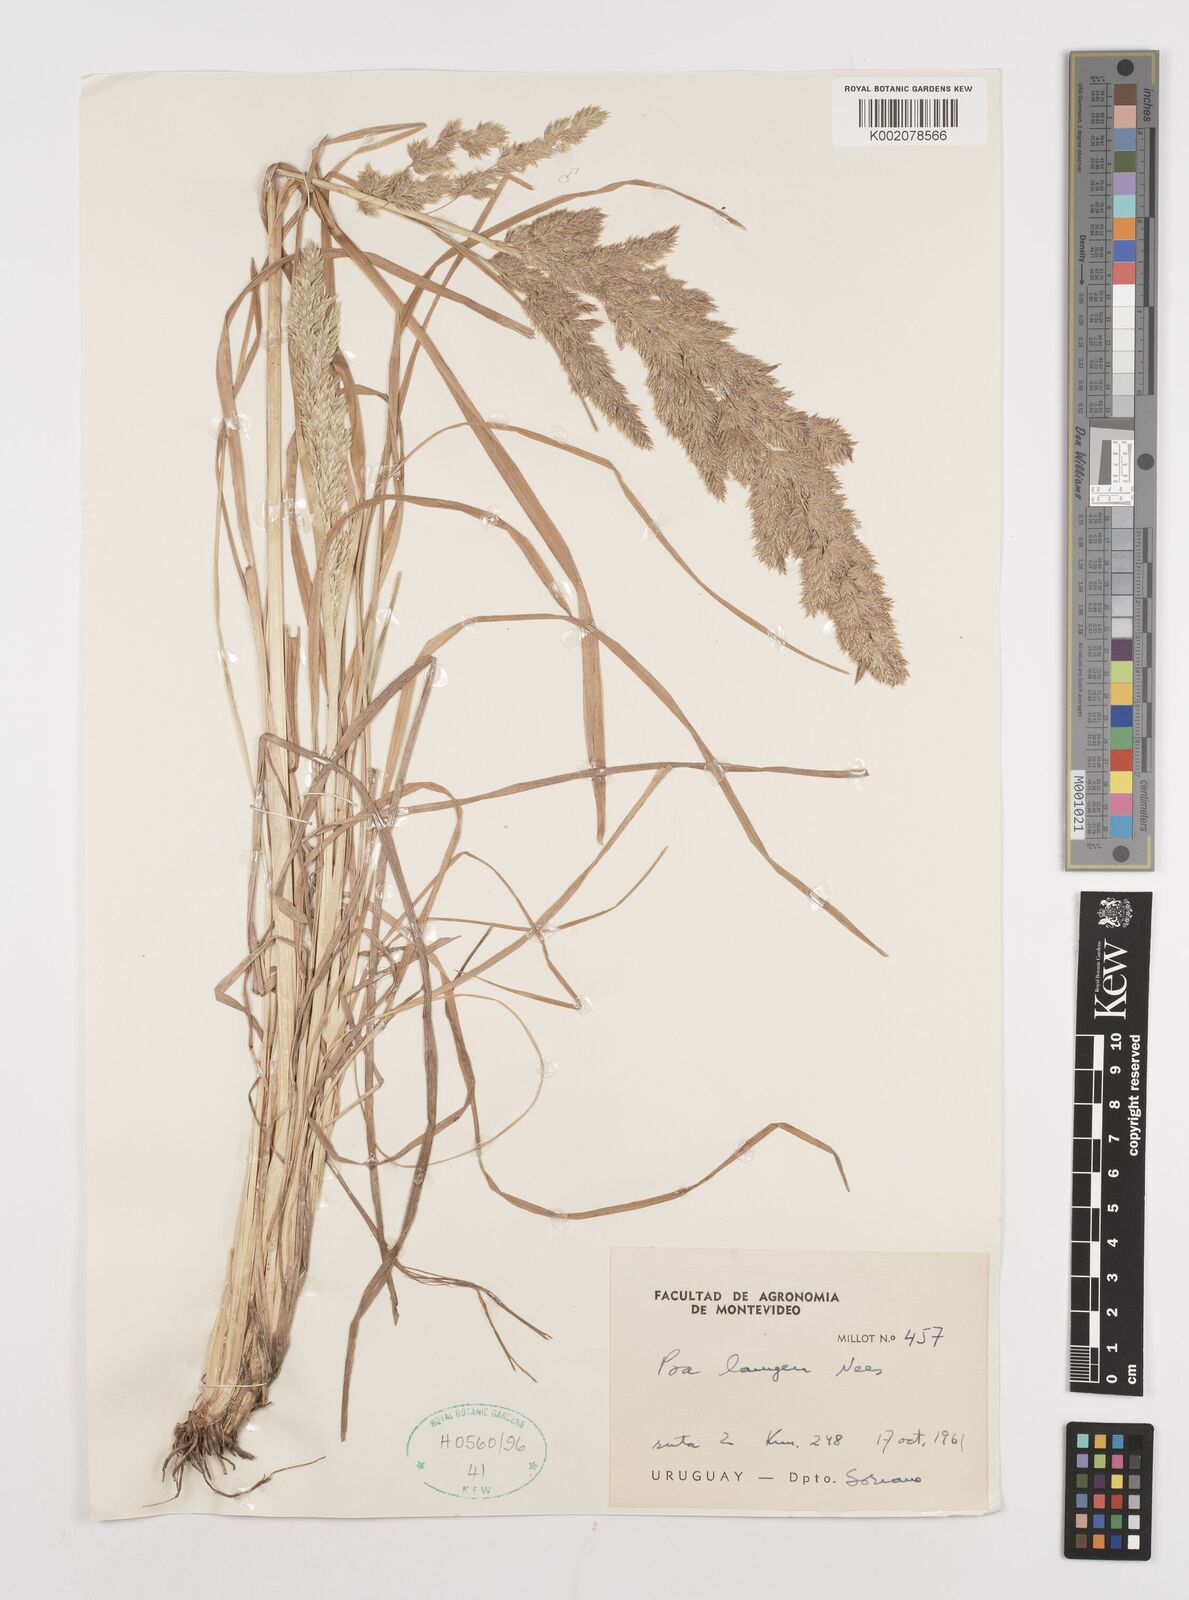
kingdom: Plantae
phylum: Tracheophyta
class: Liliopsida
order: Poales
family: Poaceae
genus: Poa
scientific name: Poa lanuginosa
